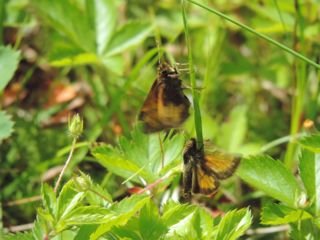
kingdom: Animalia
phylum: Arthropoda
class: Insecta
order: Lepidoptera
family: Hesperiidae
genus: Lon
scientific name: Lon hobomok
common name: Hobomok Skipper
